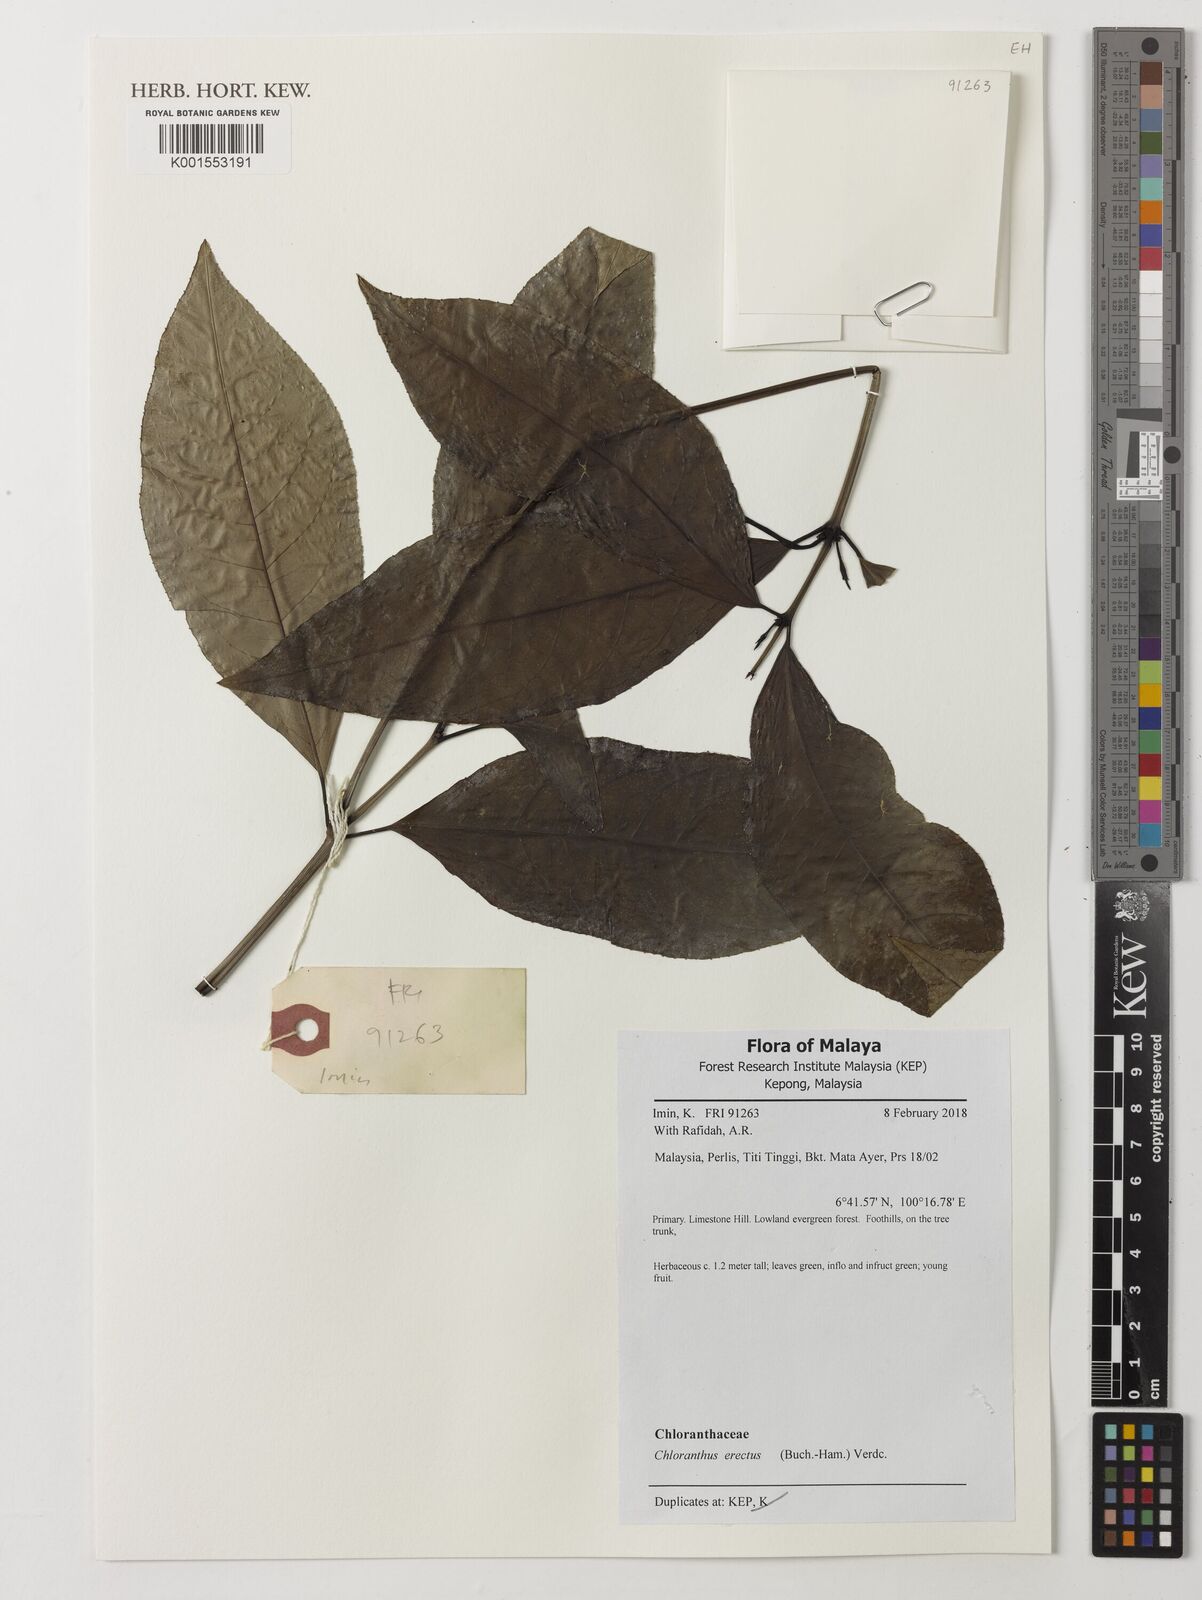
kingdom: Plantae
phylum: Tracheophyta
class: Magnoliopsida
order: Chloranthales
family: Chloranthaceae
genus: Chloranthus
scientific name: Chloranthus elatior
